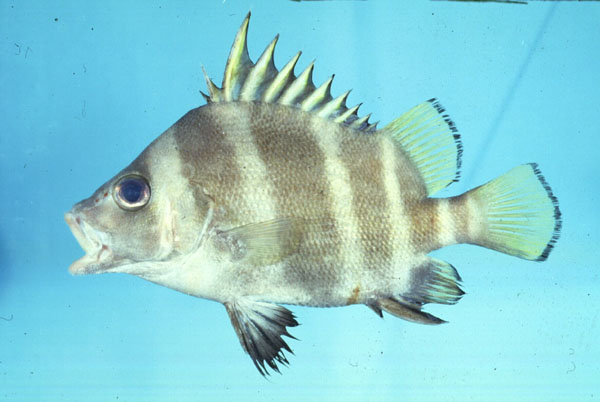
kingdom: Animalia
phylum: Chordata
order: Perciformes
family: Hapalogenyidae
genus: Hapalogenys
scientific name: Hapalogenys analis
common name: Belted beard grunt
